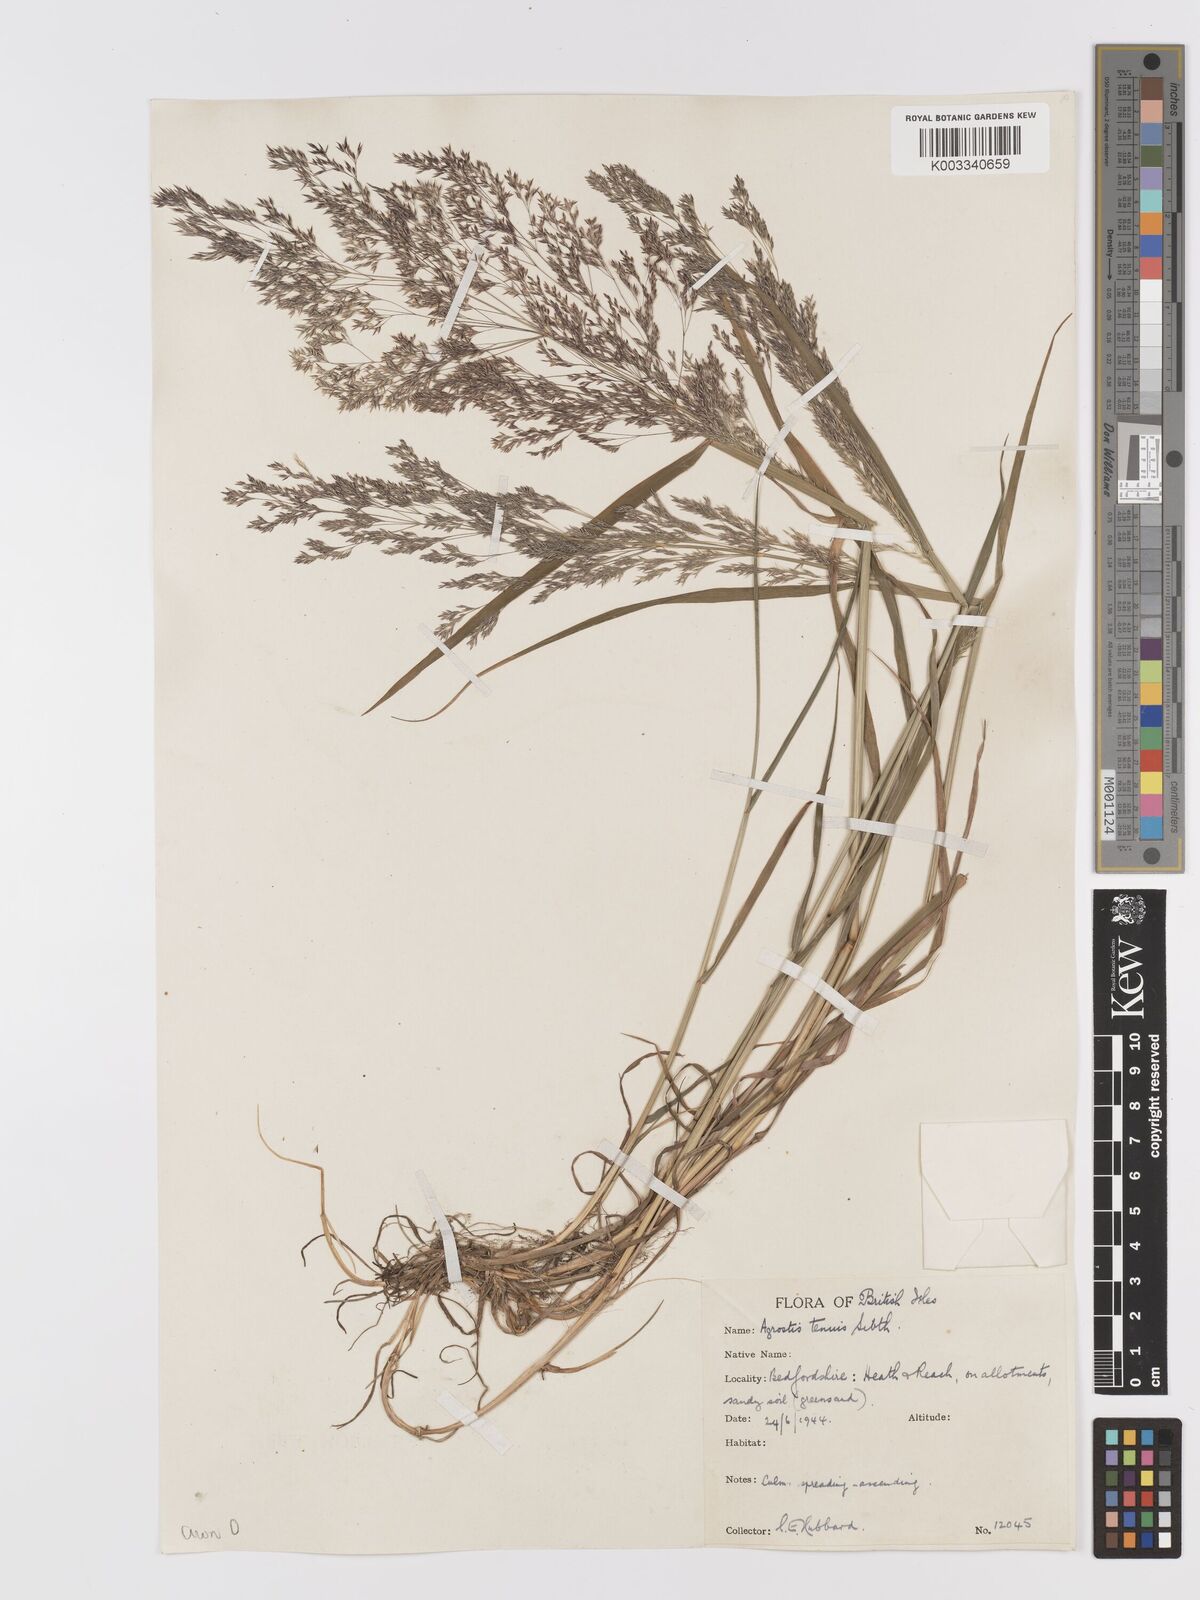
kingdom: Plantae
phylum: Tracheophyta
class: Liliopsida
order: Poales
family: Poaceae
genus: Agrostis
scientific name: Agrostis capillaris
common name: Colonial bentgrass
